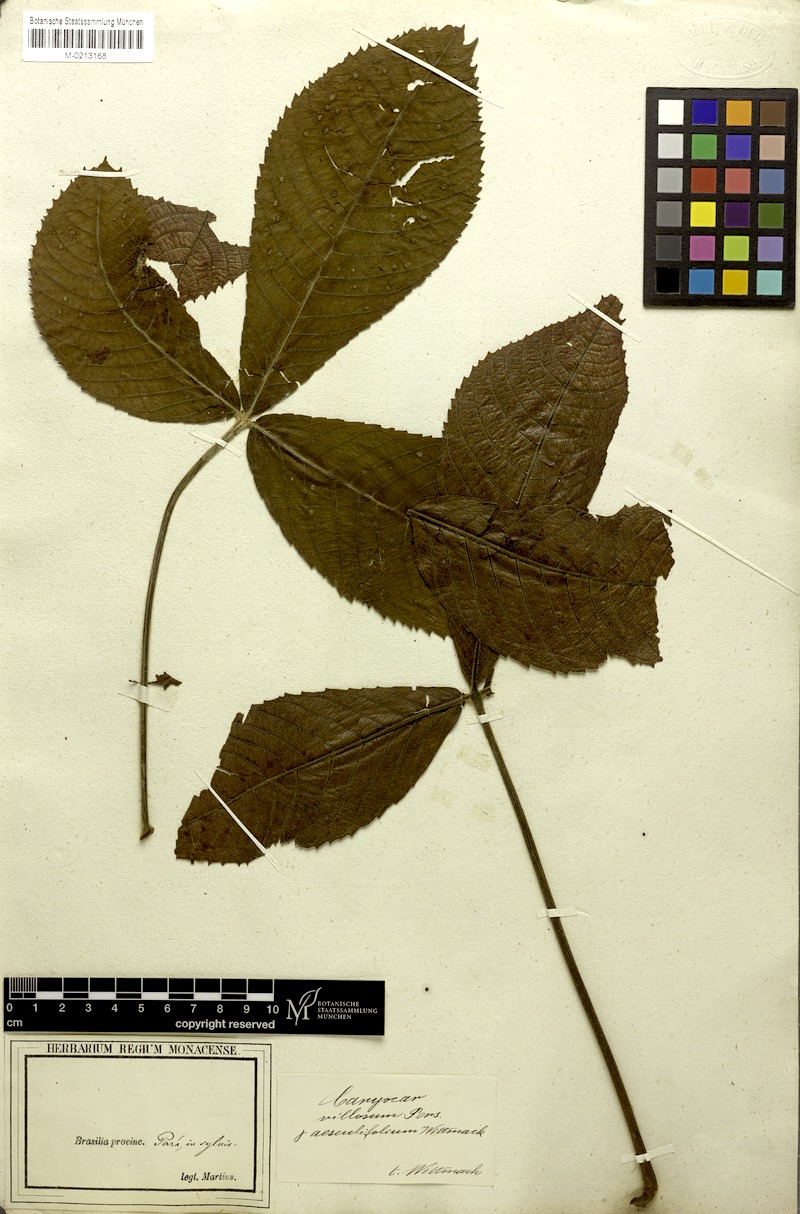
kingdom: Plantae
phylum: Tracheophyta
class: Magnoliopsida
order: Malpighiales
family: Caryocaraceae
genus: Caryocar
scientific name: Caryocar villosum
